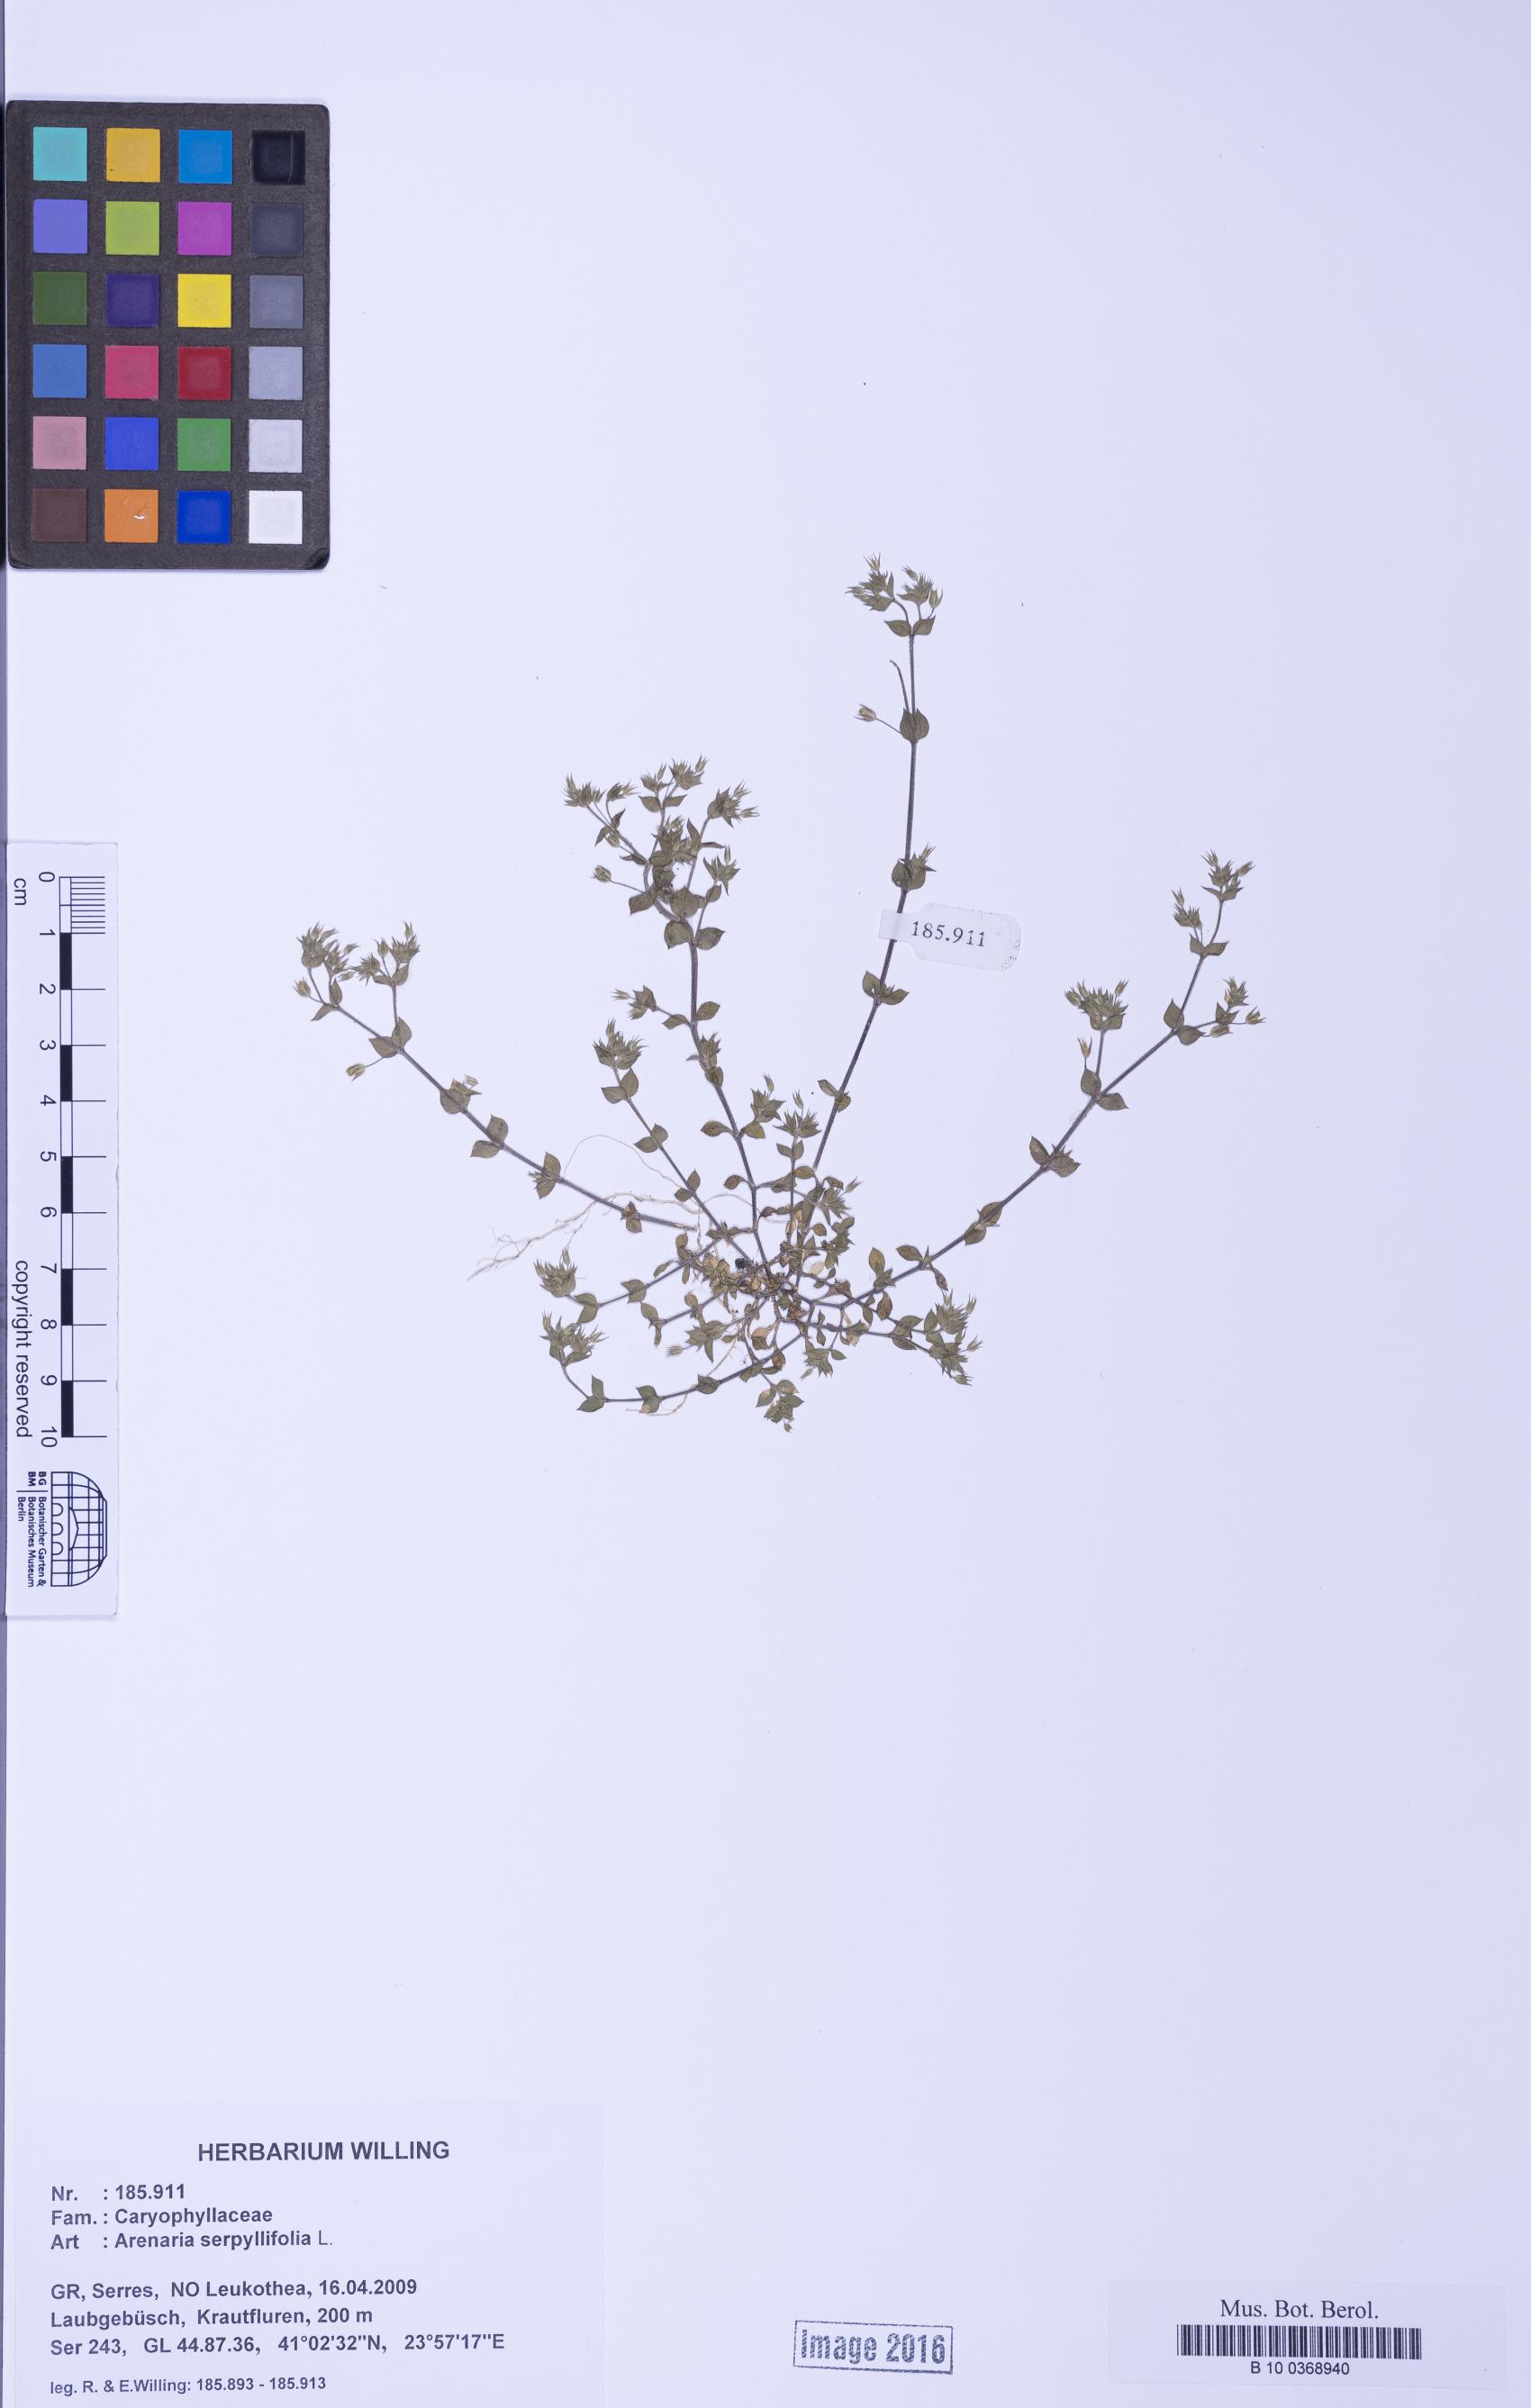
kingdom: Plantae
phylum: Tracheophyta
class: Magnoliopsida
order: Caryophyllales
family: Caryophyllaceae
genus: Arenaria
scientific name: Arenaria serpyllifolia
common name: Thyme-leaved sandwort
